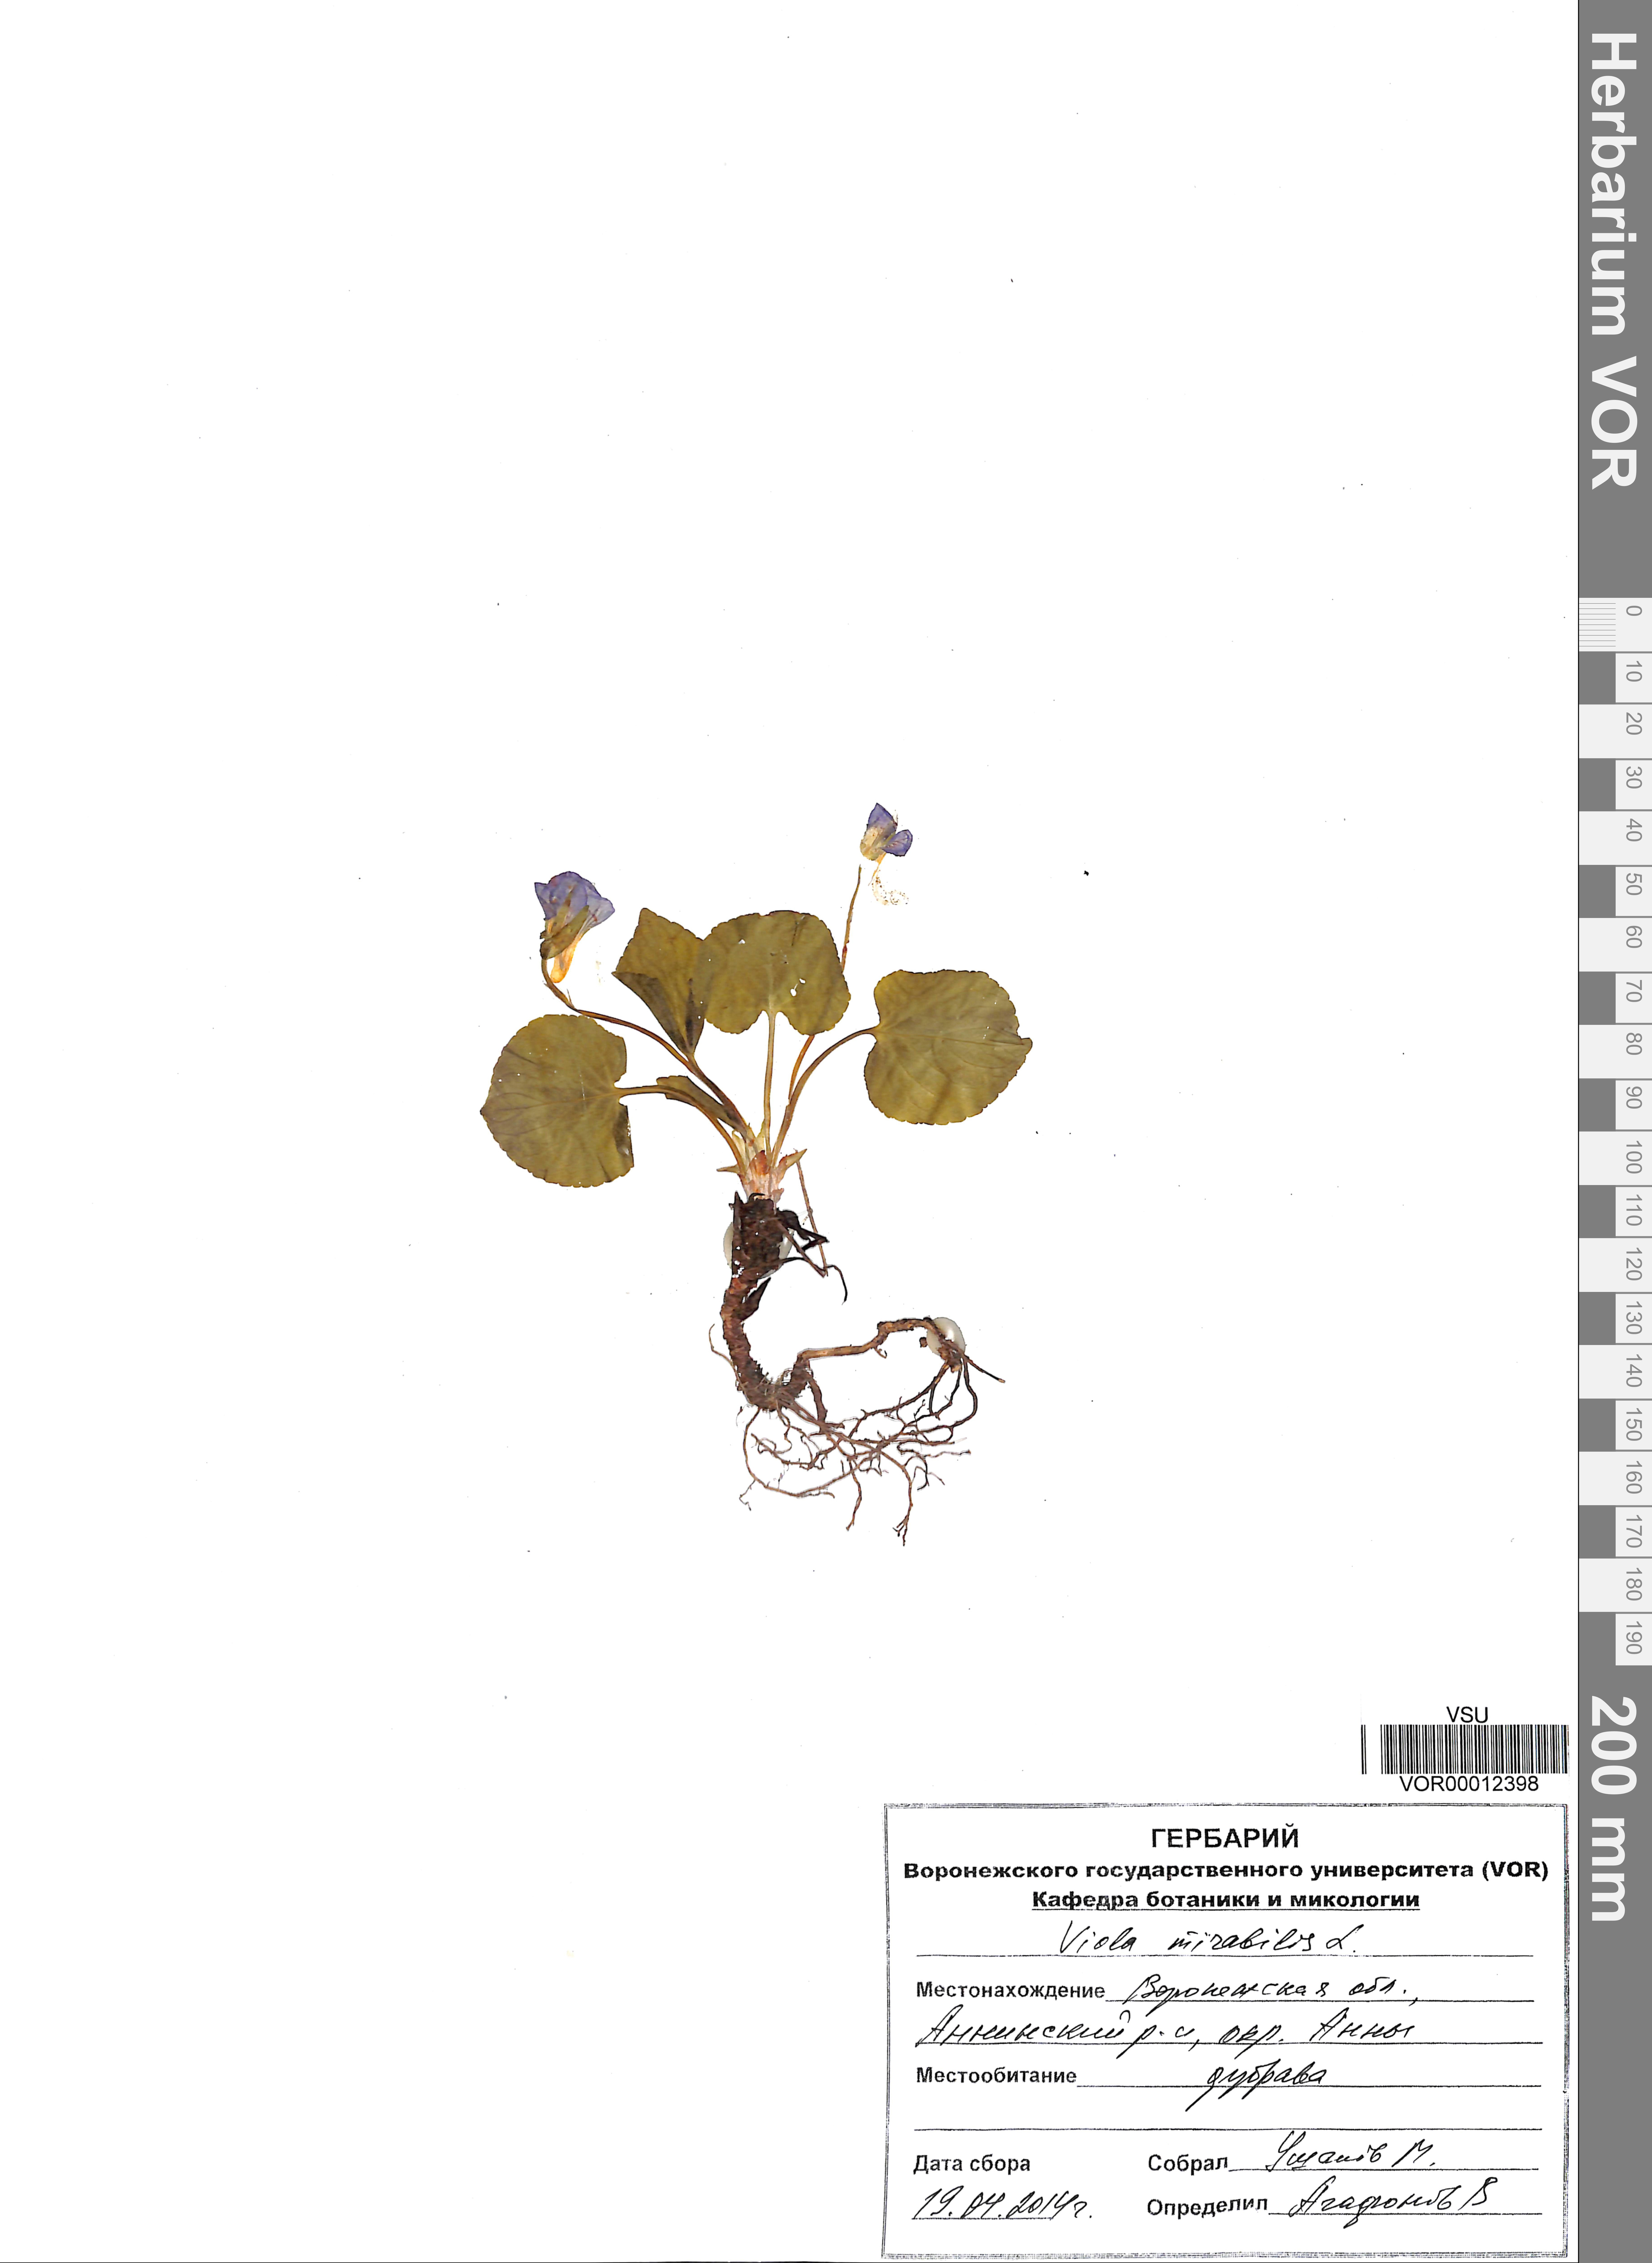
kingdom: Plantae
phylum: Tracheophyta
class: Magnoliopsida
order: Malpighiales
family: Violaceae
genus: Viola
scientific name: Viola mirabilis
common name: Wonder violet
